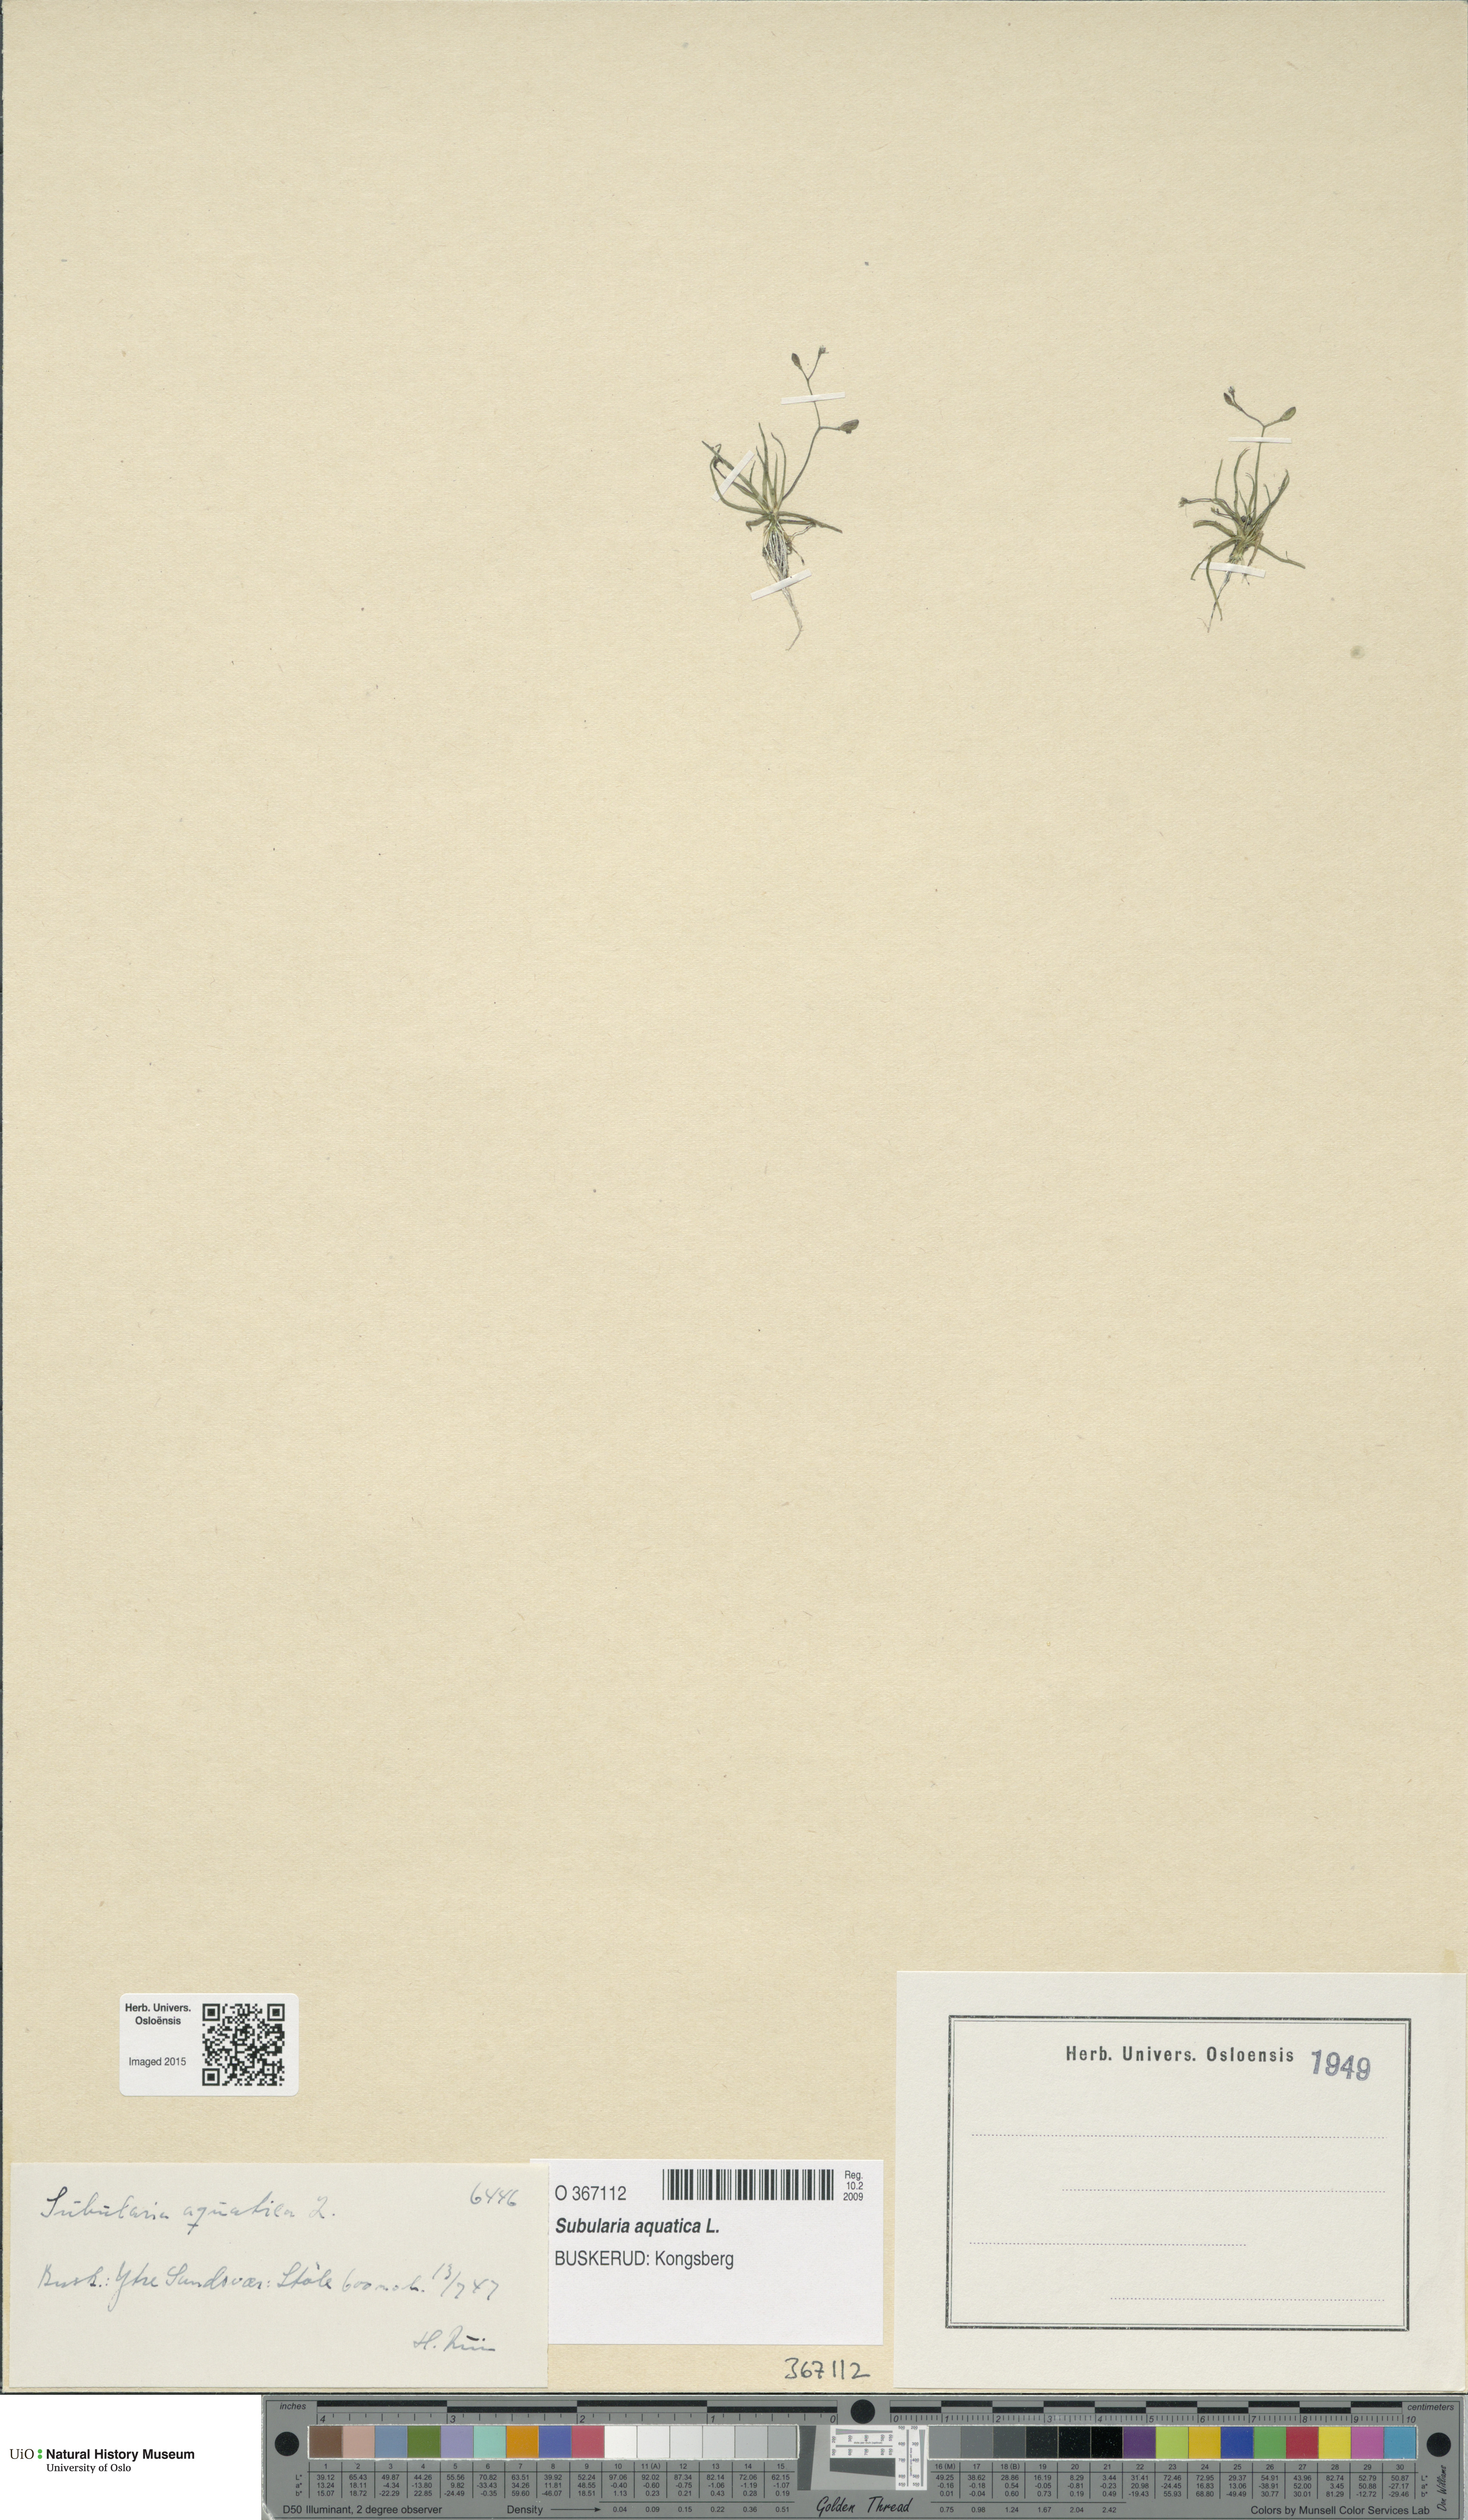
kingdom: Plantae
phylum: Tracheophyta
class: Magnoliopsida
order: Brassicales
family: Brassicaceae
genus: Subularia
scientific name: Subularia aquatica
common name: Awlwort
